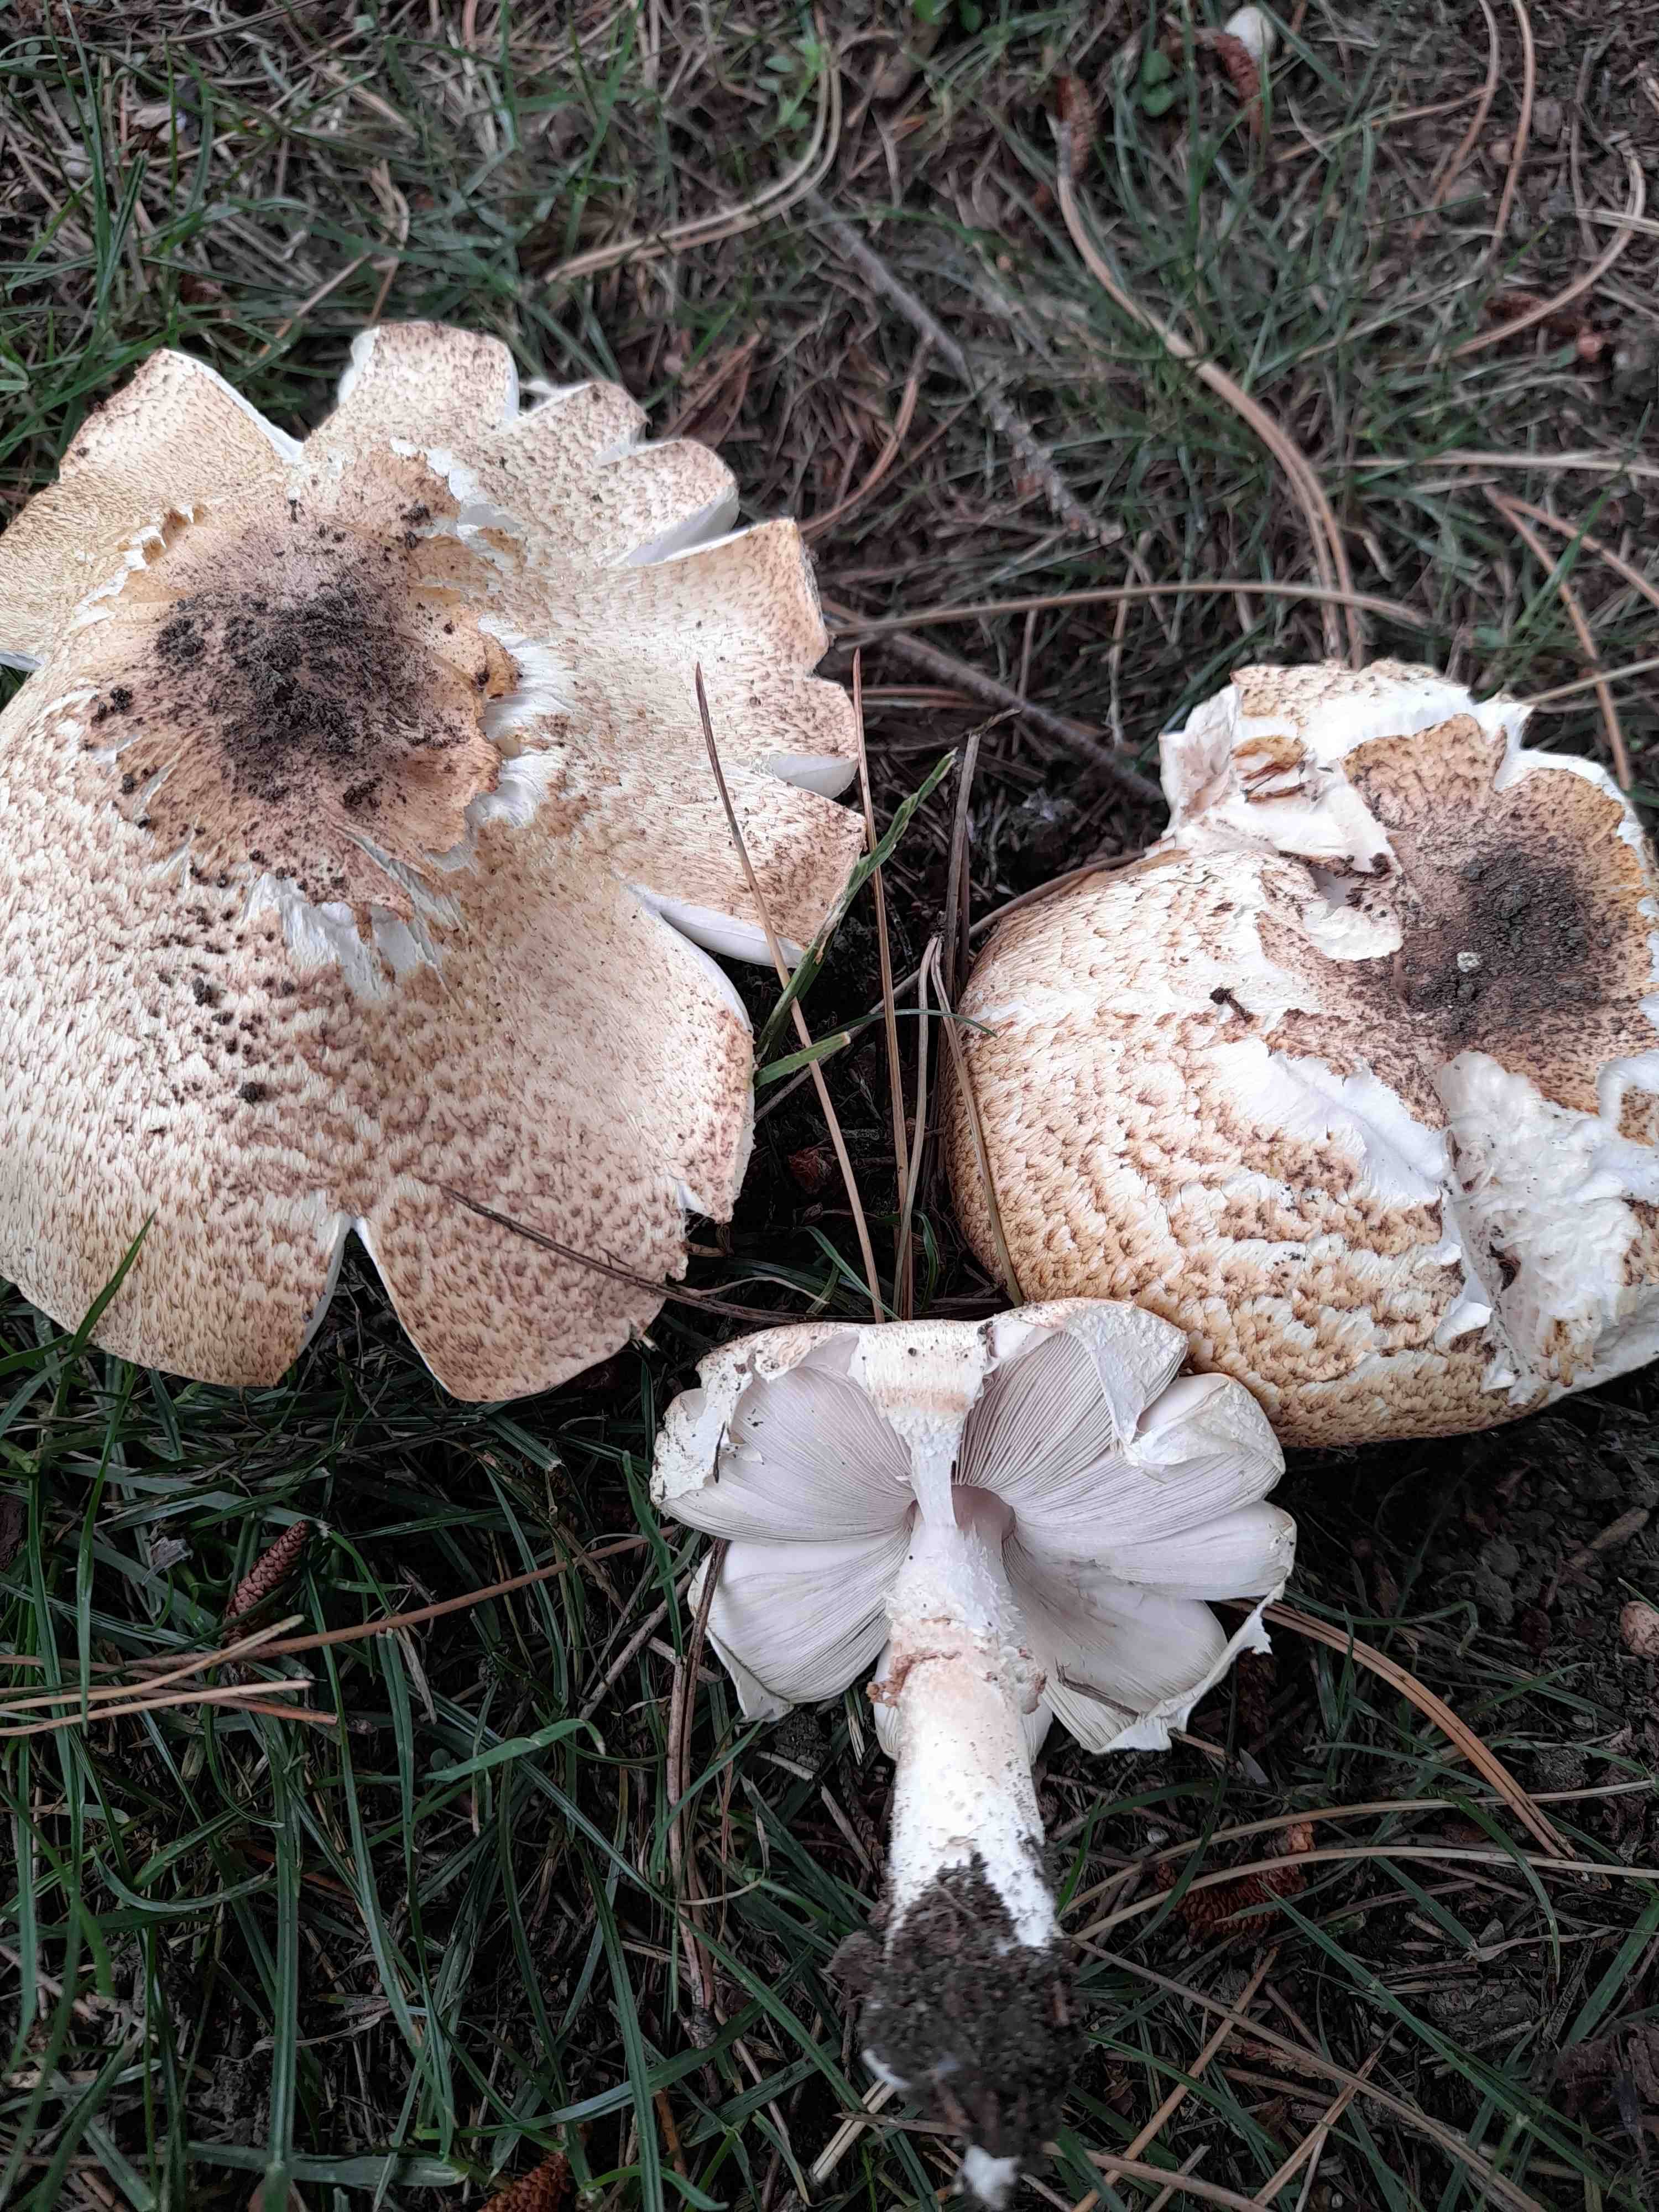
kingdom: Fungi
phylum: Basidiomycota
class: Agaricomycetes
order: Agaricales
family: Agaricaceae
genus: Agaricus
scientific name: Agaricus augustus
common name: prægtig champignon
